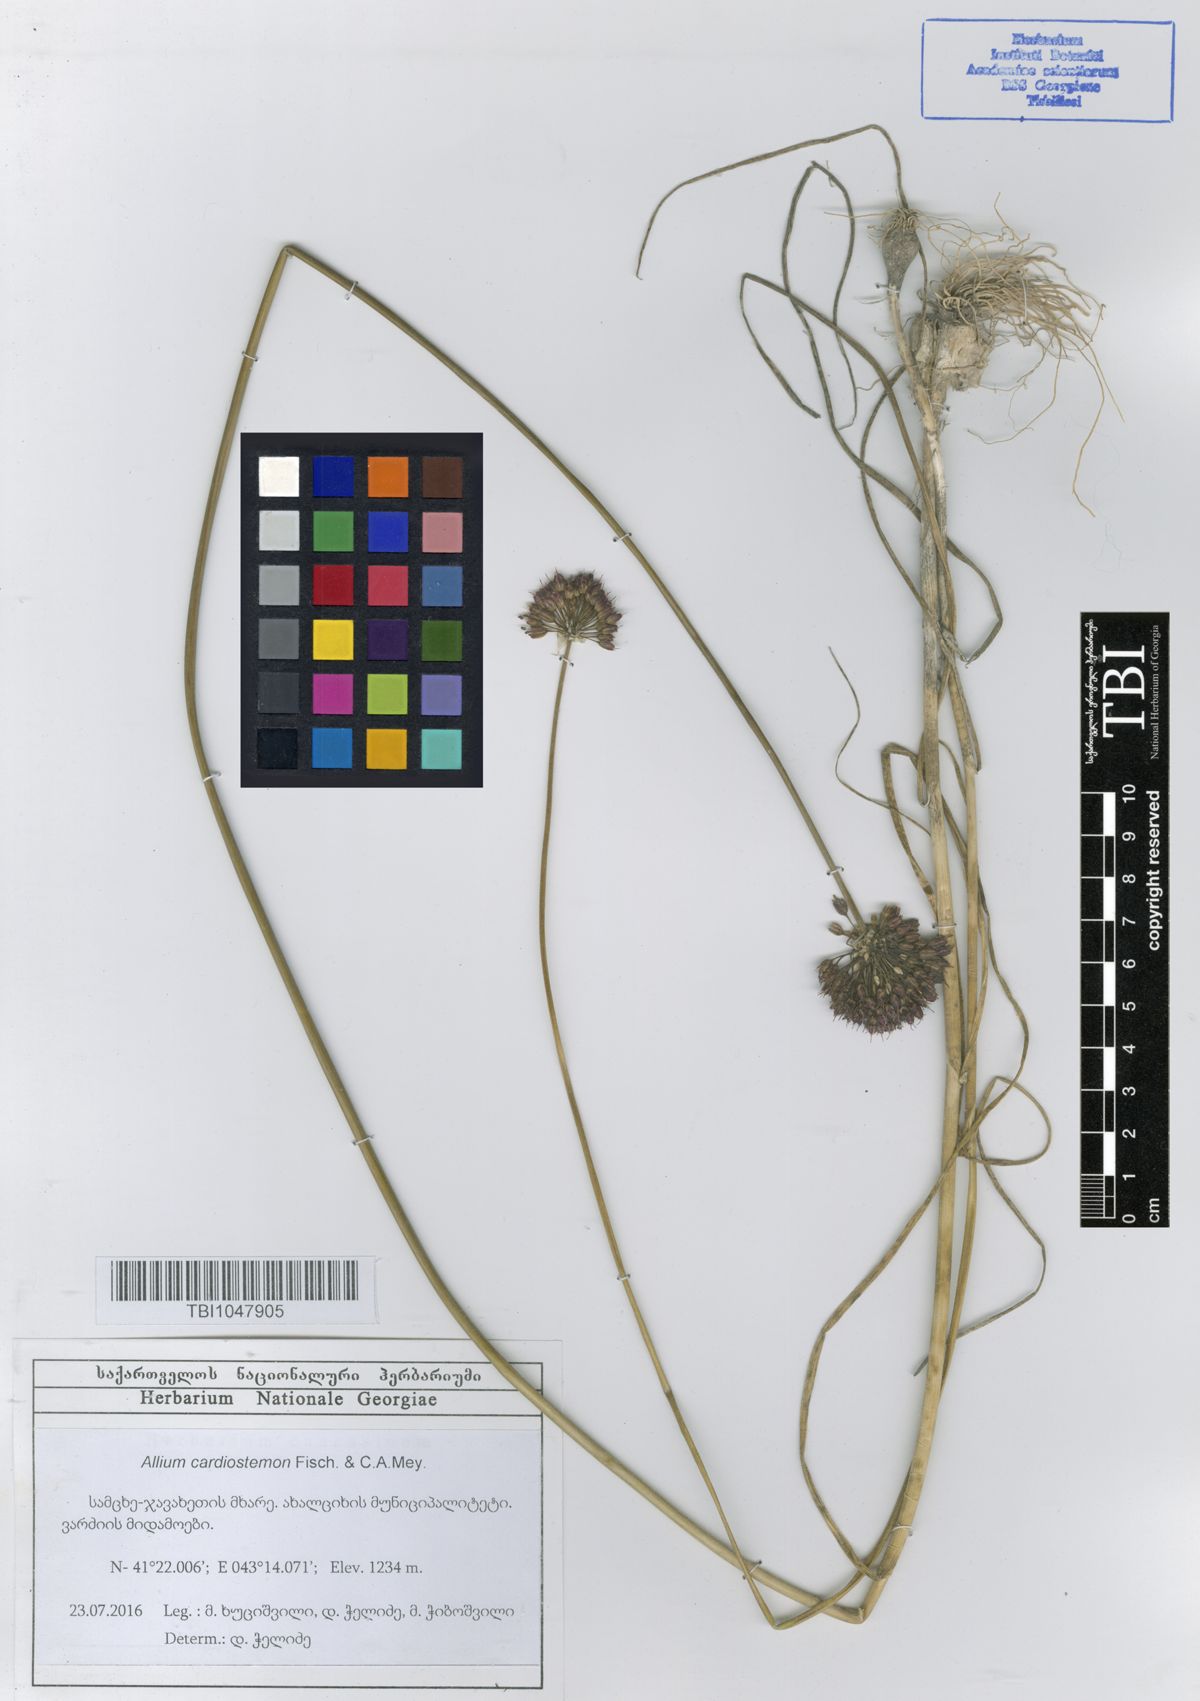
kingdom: Plantae
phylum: Tracheophyta
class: Liliopsida
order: Asparagales
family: Amaryllidaceae
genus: Allium
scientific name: Allium cardiostemon
